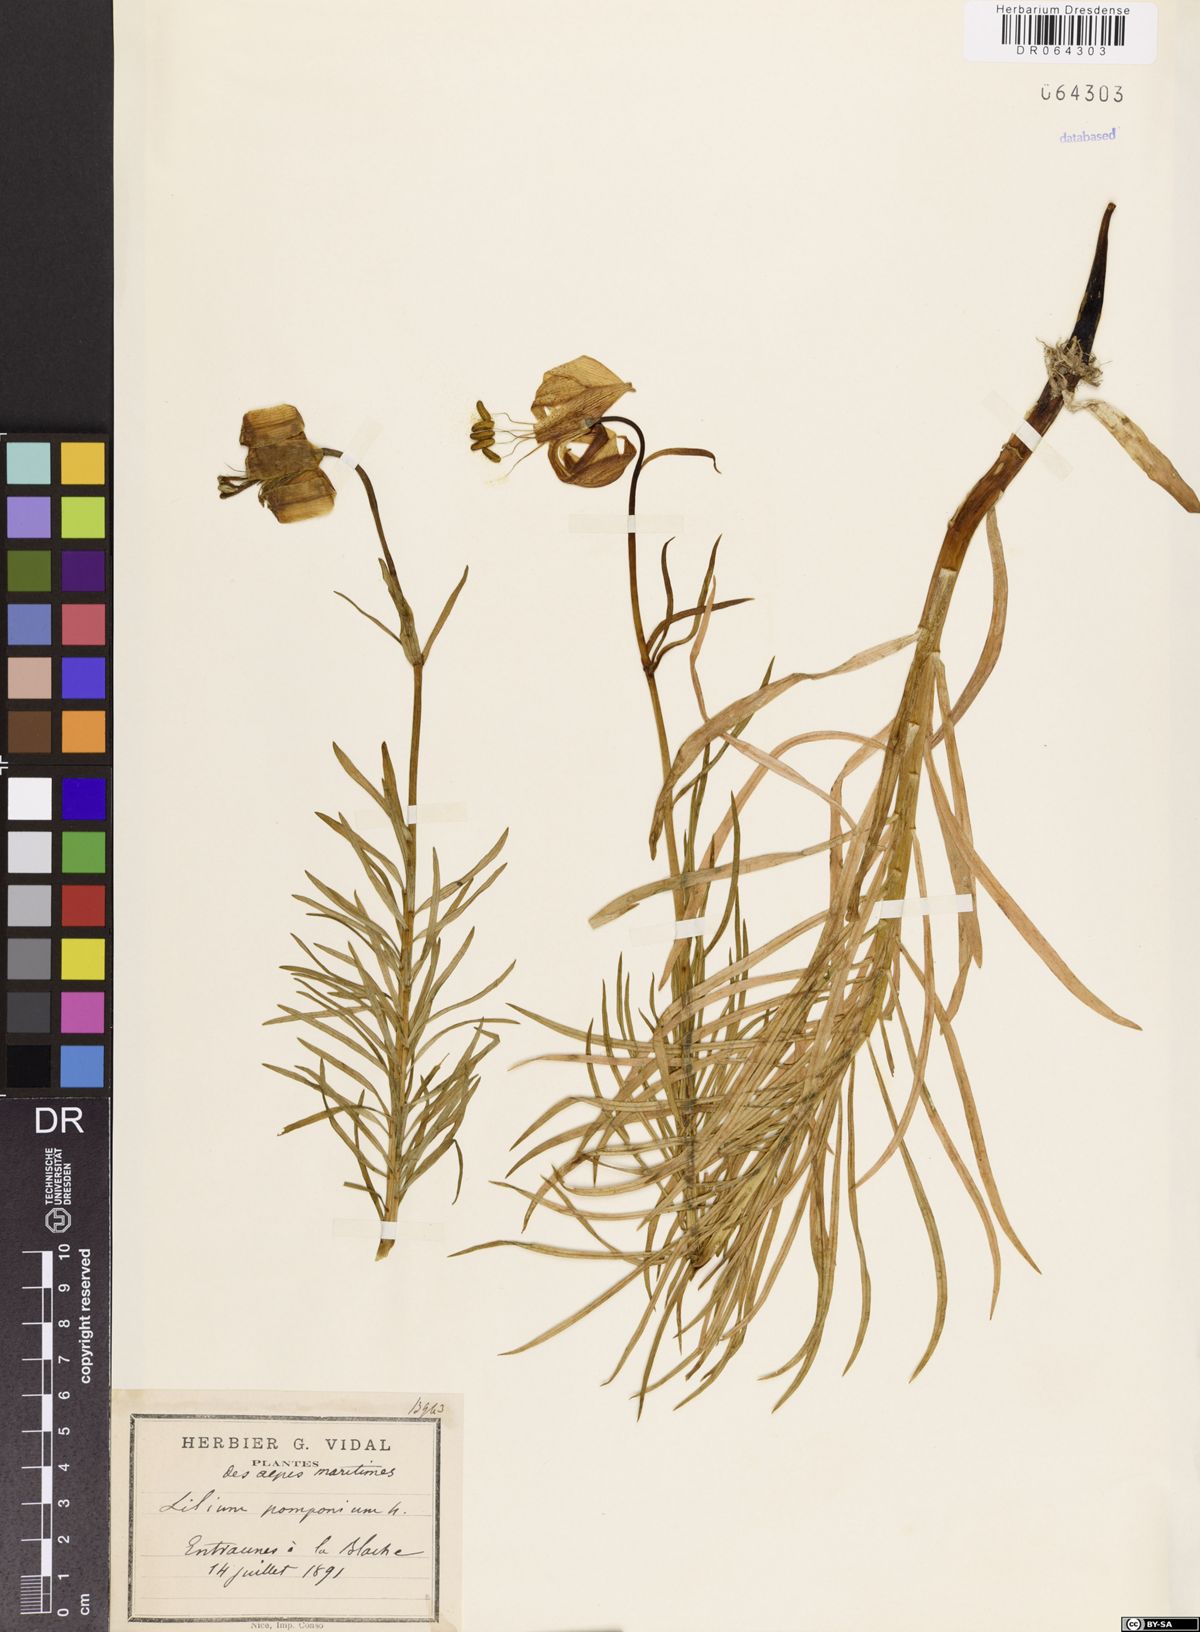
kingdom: Plantae
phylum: Tracheophyta
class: Liliopsida
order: Liliales
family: Liliaceae
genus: Lilium
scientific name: Lilium pomponium
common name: Minor turk's-cap lily
